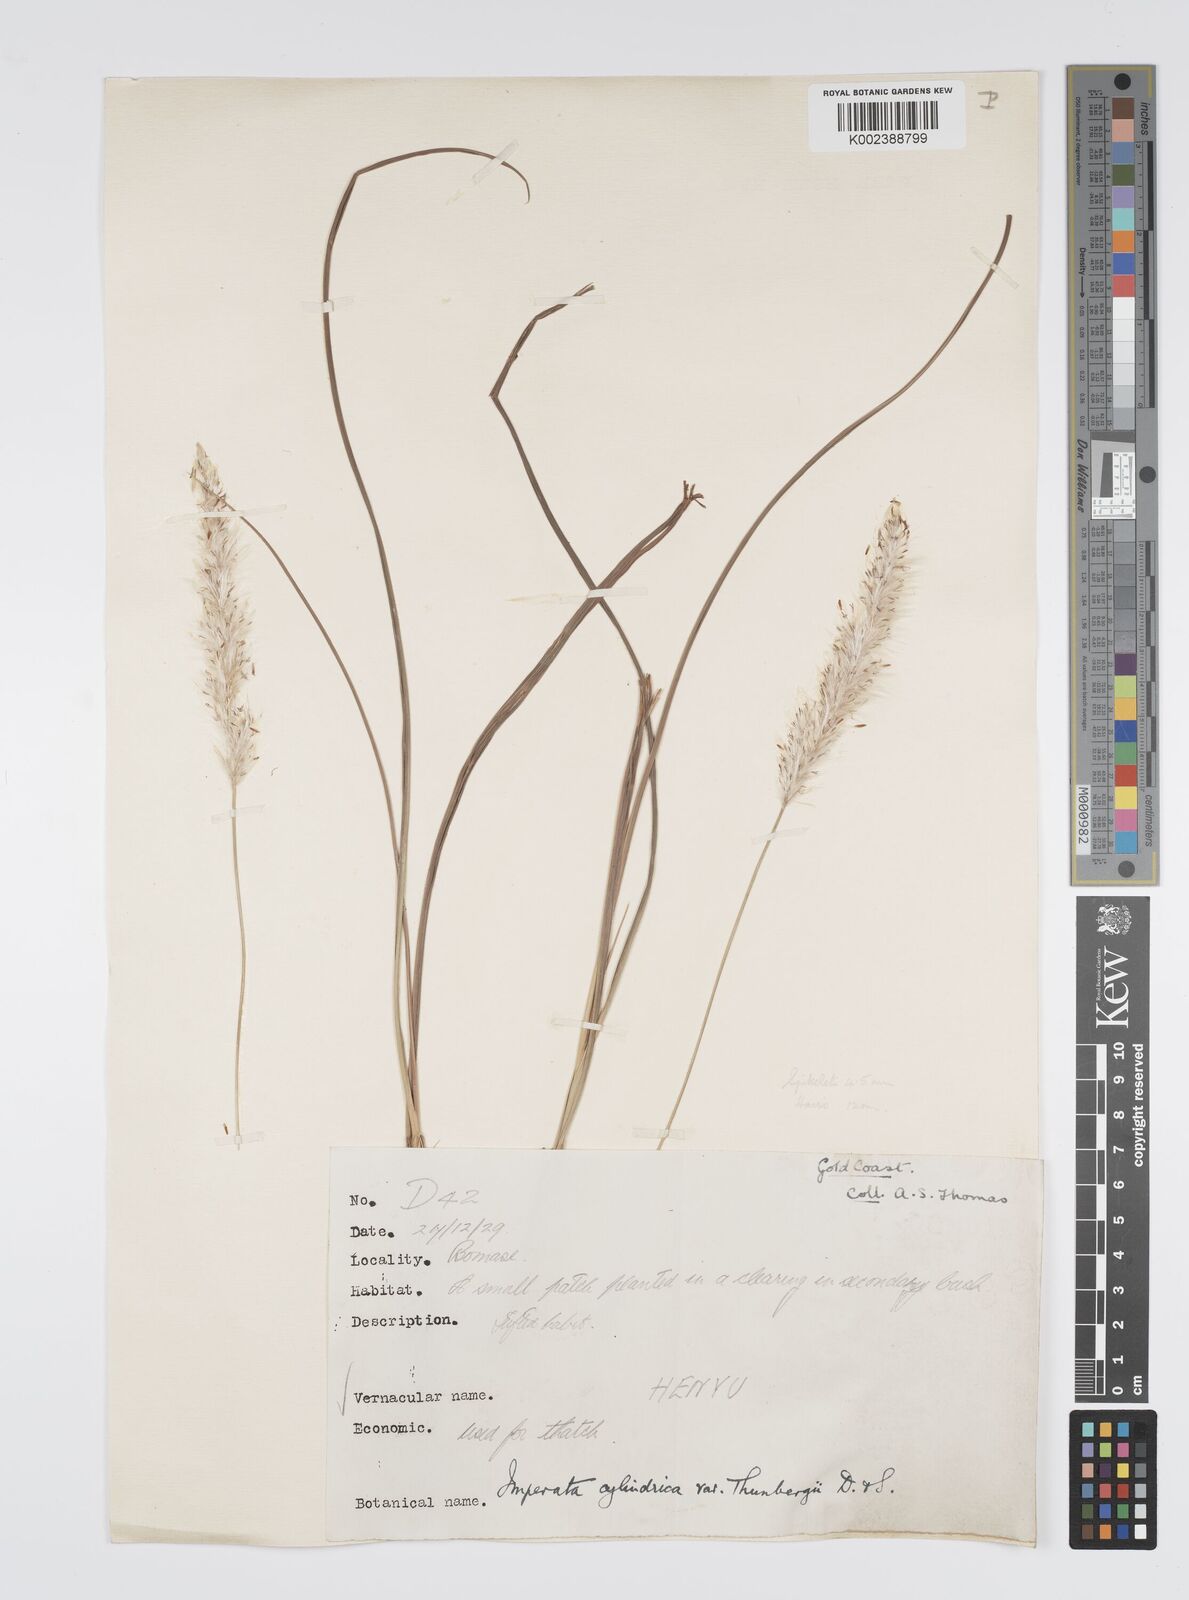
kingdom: Plantae
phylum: Tracheophyta
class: Liliopsida
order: Poales
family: Poaceae
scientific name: Poaceae
